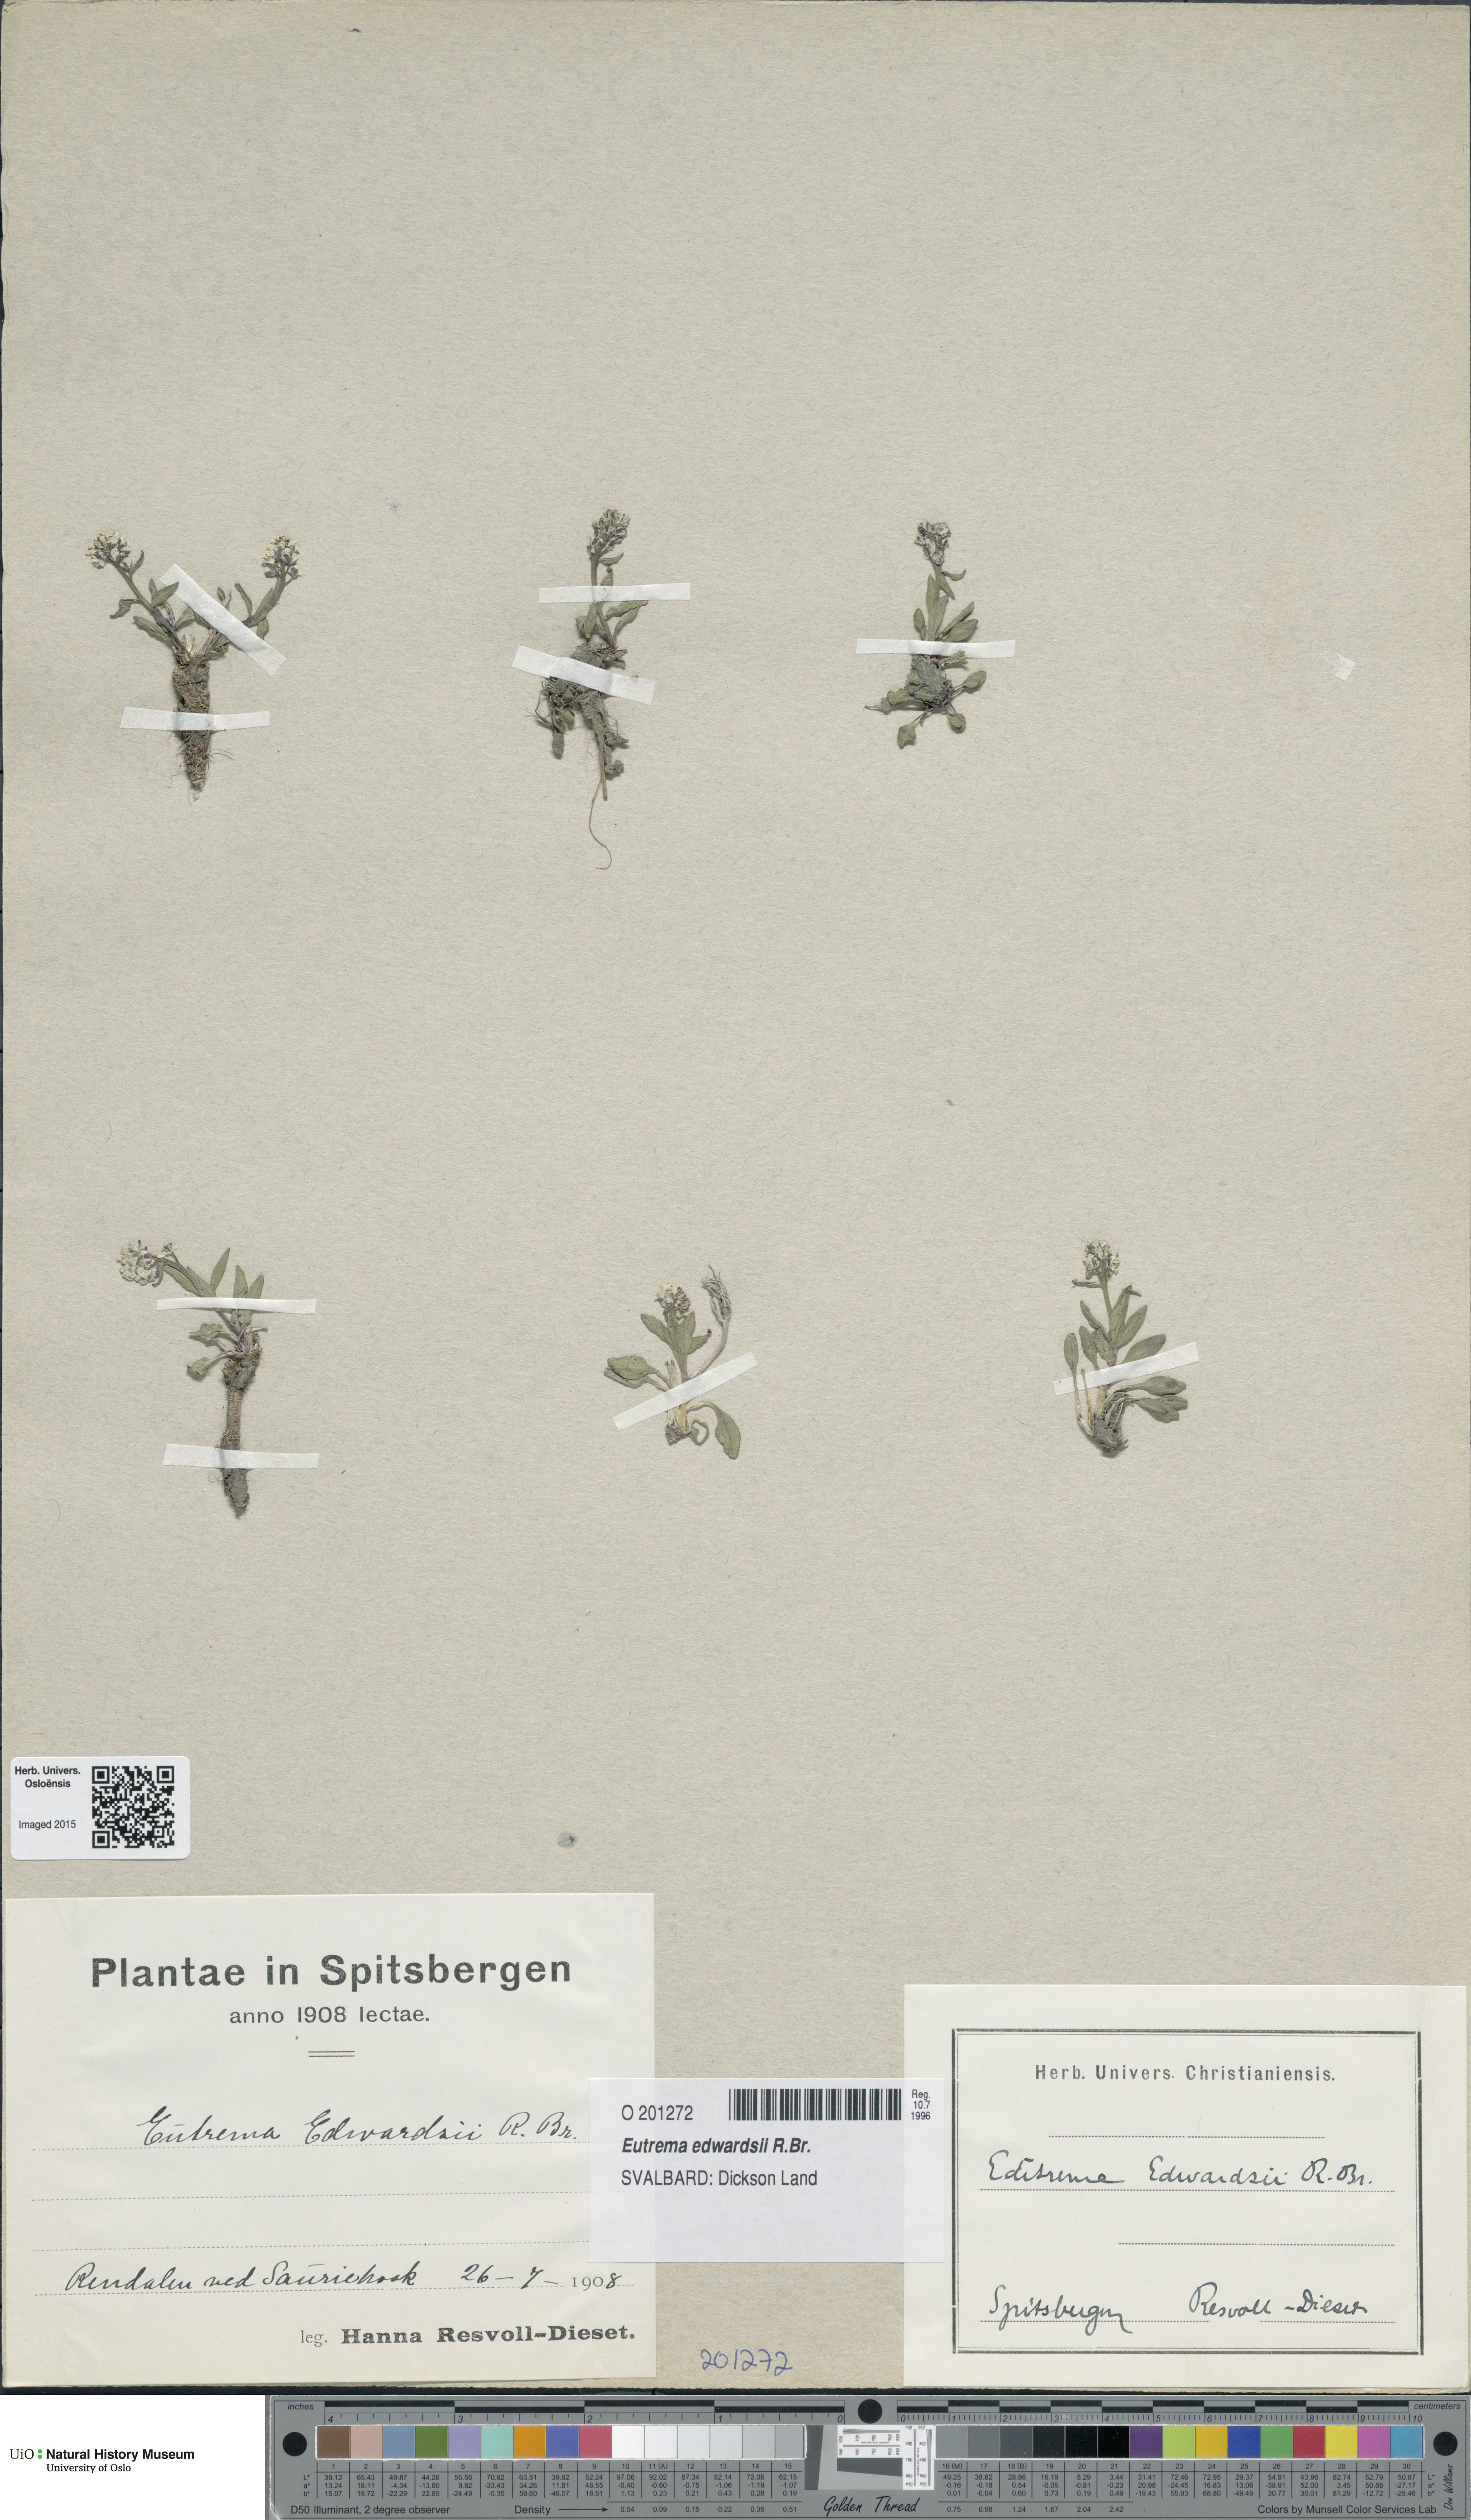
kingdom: Plantae
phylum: Tracheophyta
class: Magnoliopsida
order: Brassicales
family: Brassicaceae
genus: Eutrema
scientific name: Eutrema edwardsii
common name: Penland alpine fen mustard
